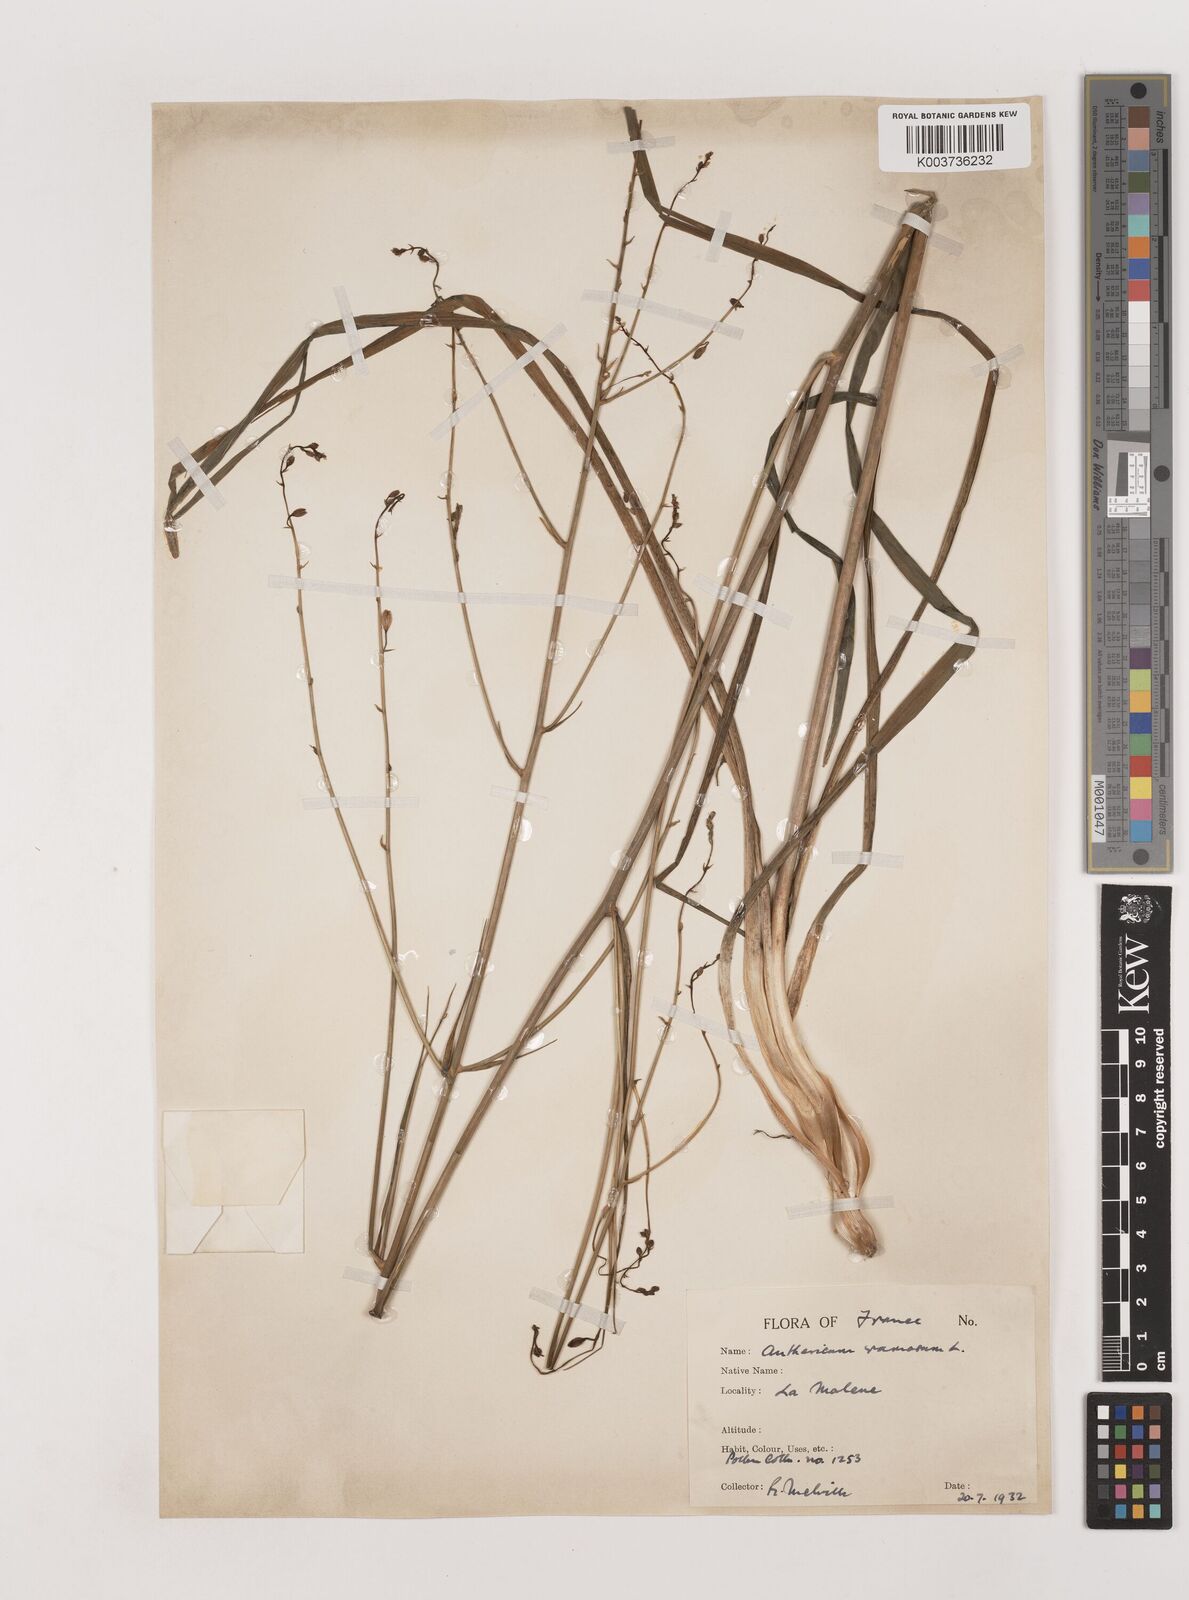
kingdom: Plantae
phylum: Tracheophyta
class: Liliopsida
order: Asparagales
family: Asparagaceae
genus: Anthericum
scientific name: Anthericum ramosum
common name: Branched st. bernard's-lily
